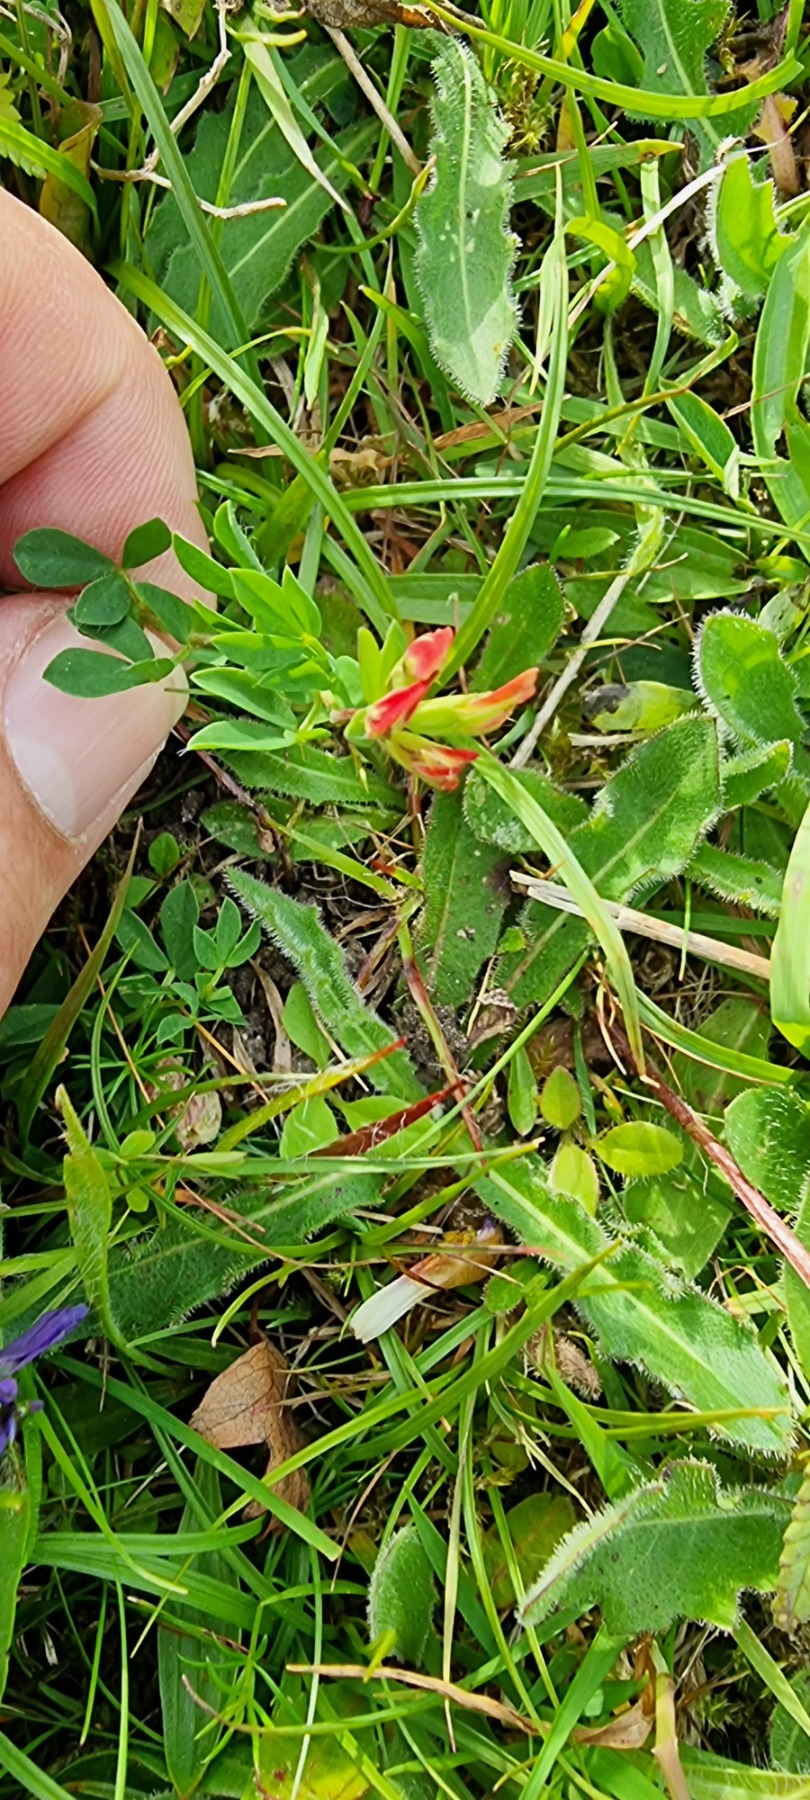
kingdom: Plantae
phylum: Tracheophyta
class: Magnoliopsida
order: Fabales
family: Fabaceae
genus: Lotus
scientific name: Lotus corniculatus
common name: Almindelig kællingetand
